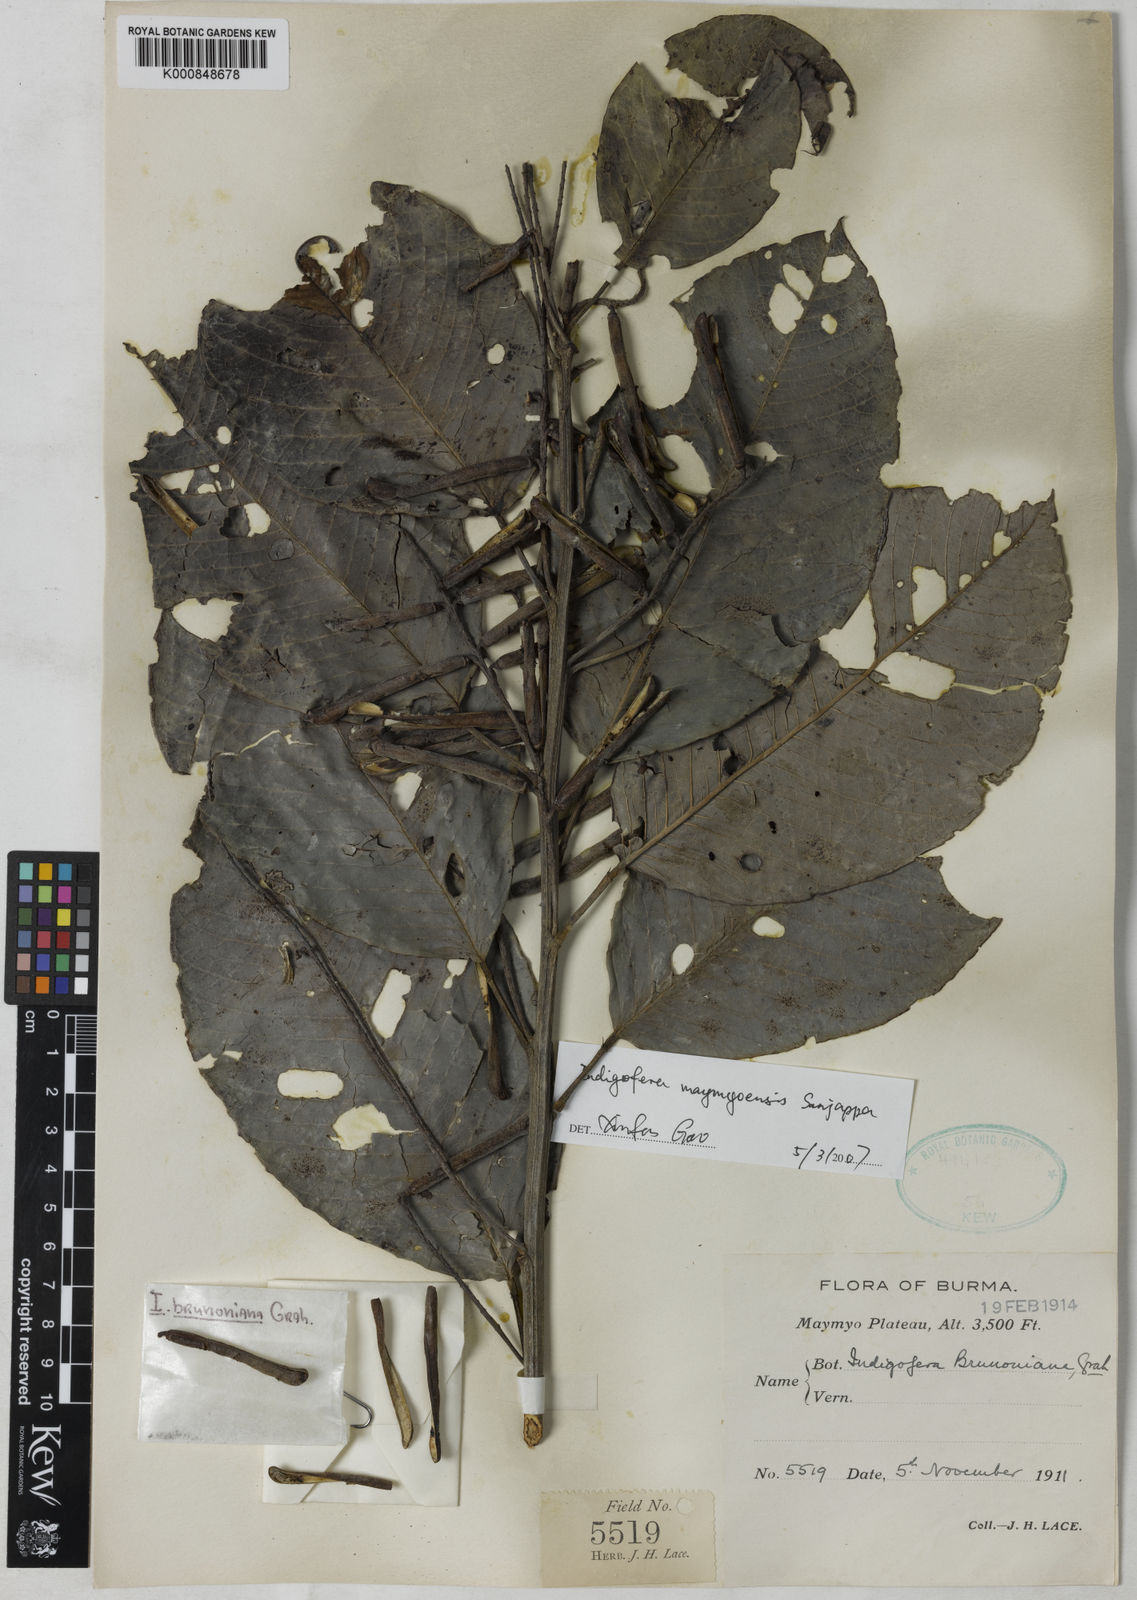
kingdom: Plantae
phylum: Tracheophyta
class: Magnoliopsida
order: Fabales
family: Fabaceae
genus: Indigofera
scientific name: Indigofera maymyoensis
